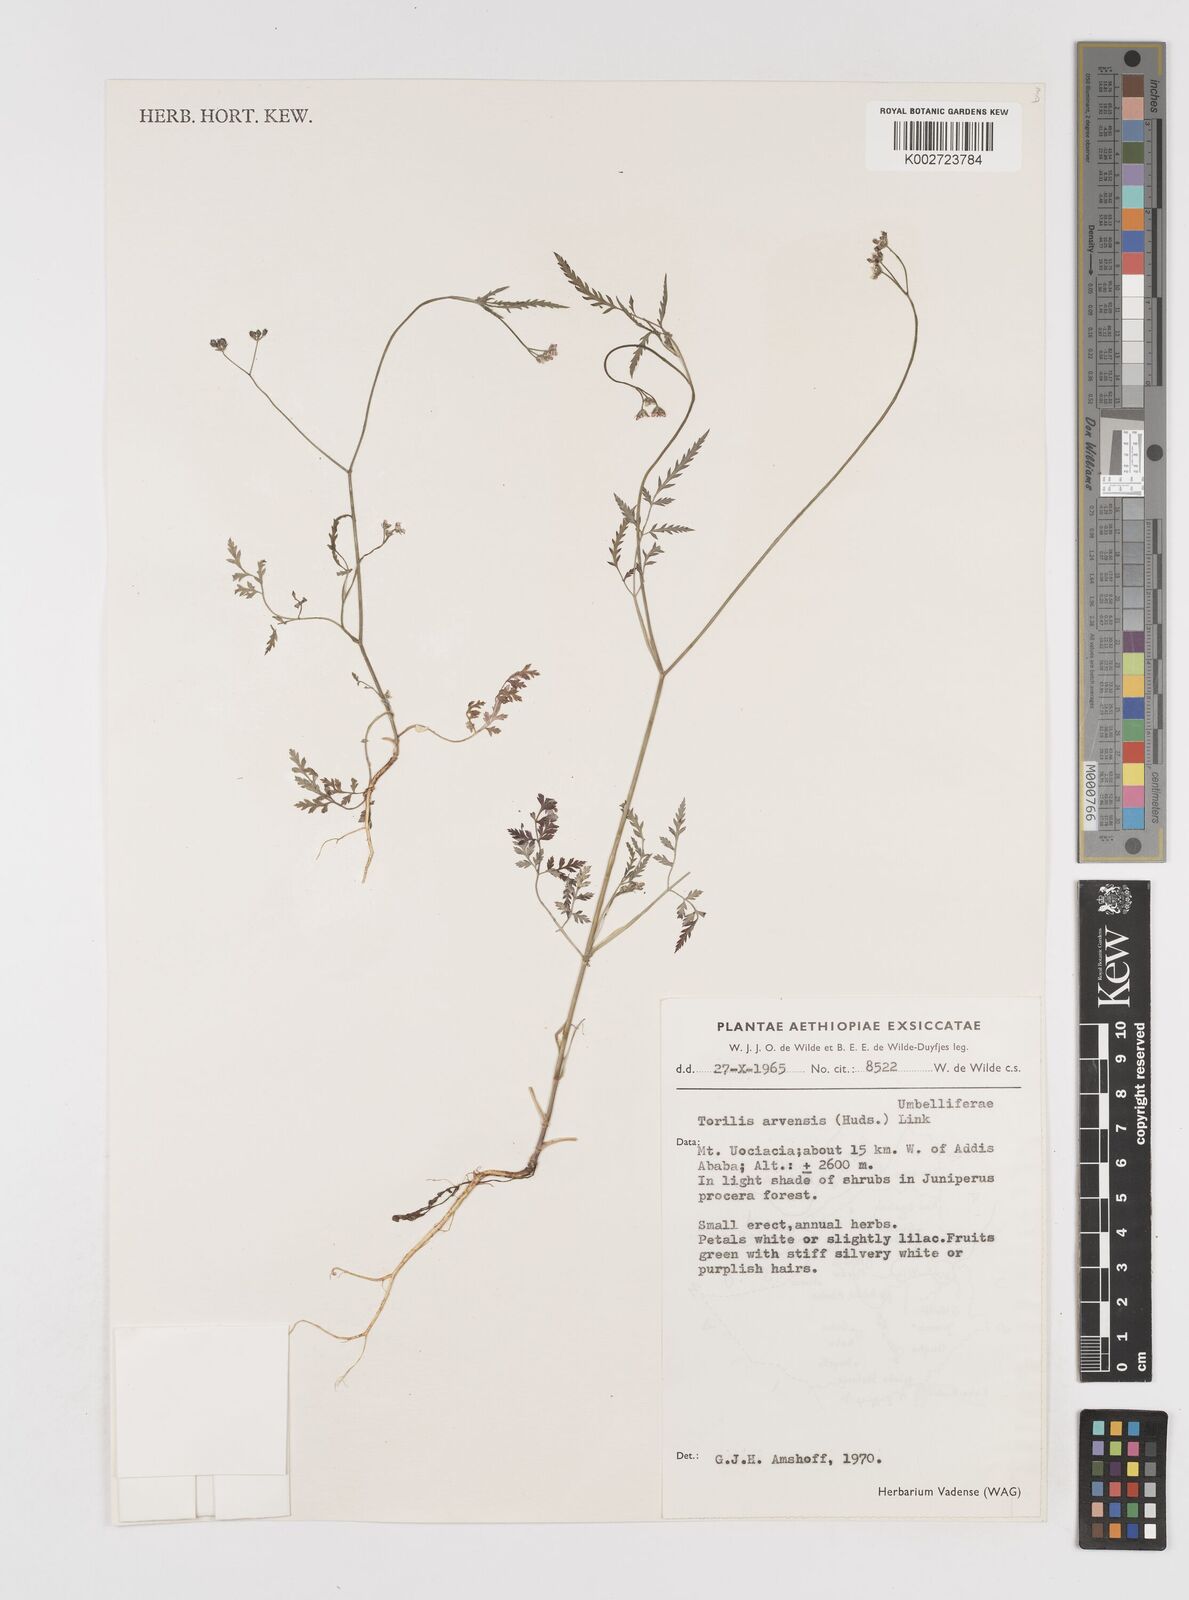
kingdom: Plantae
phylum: Tracheophyta
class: Magnoliopsida
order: Apiales
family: Apiaceae
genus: Torilis
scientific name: Torilis arvensis
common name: Spreading hedge-parsley
